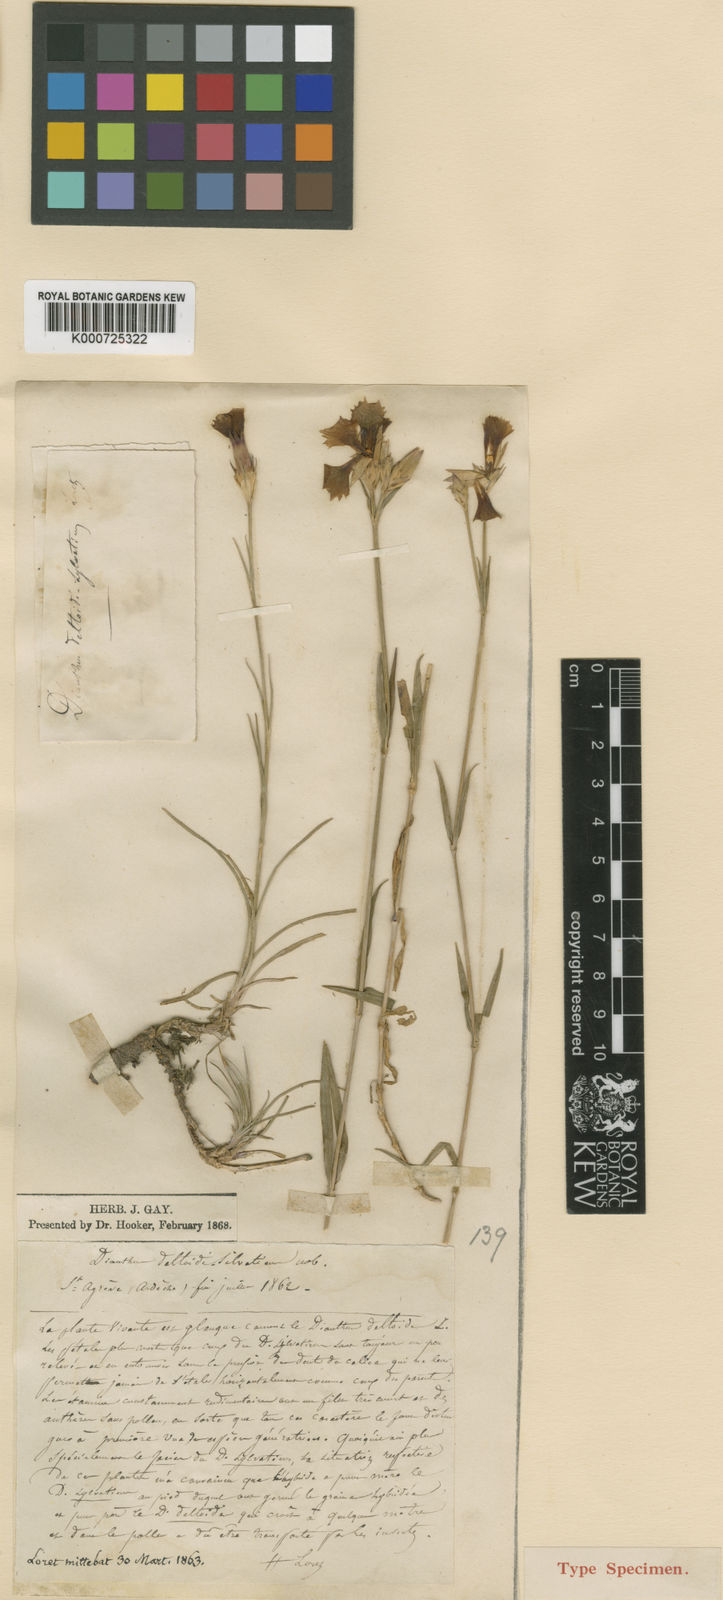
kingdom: Plantae
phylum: Tracheophyta
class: Magnoliopsida
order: Caryophyllales
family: Caryophyllaceae
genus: Dianthus
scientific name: Dianthus deltoides
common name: Maiden pink
